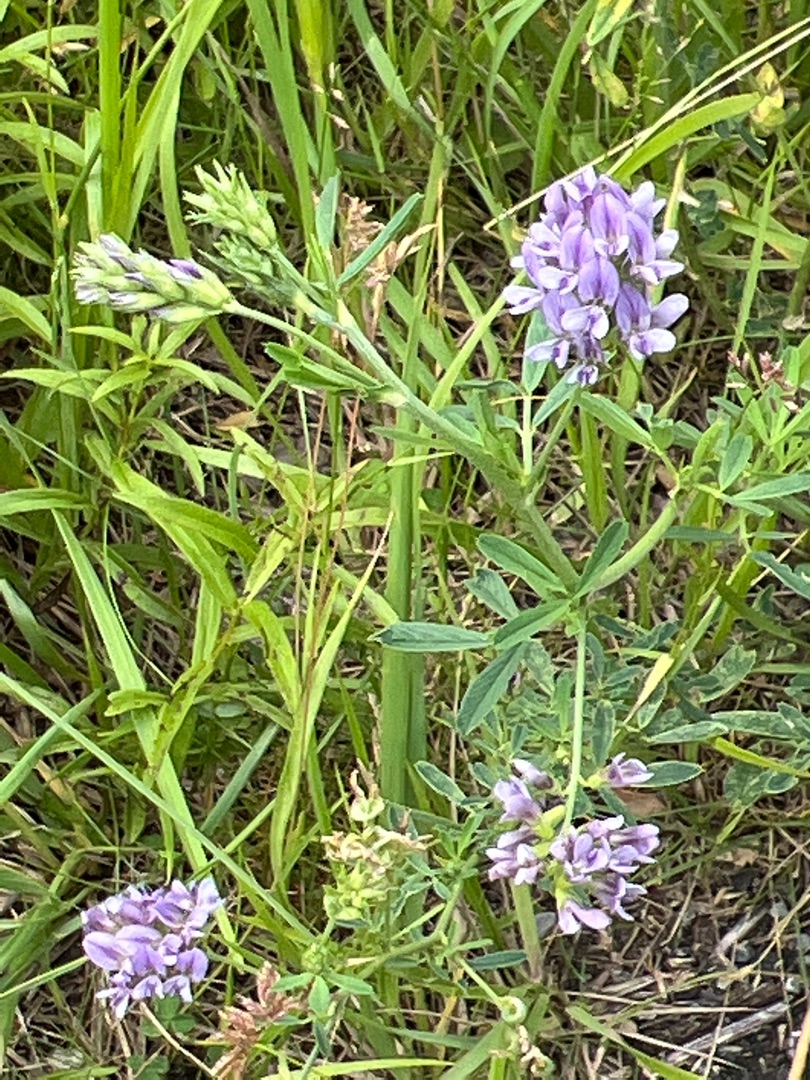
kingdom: Plantae
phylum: Tracheophyta
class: Magnoliopsida
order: Fabales
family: Fabaceae
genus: Medicago
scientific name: Medicago sativa
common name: Lucerne
